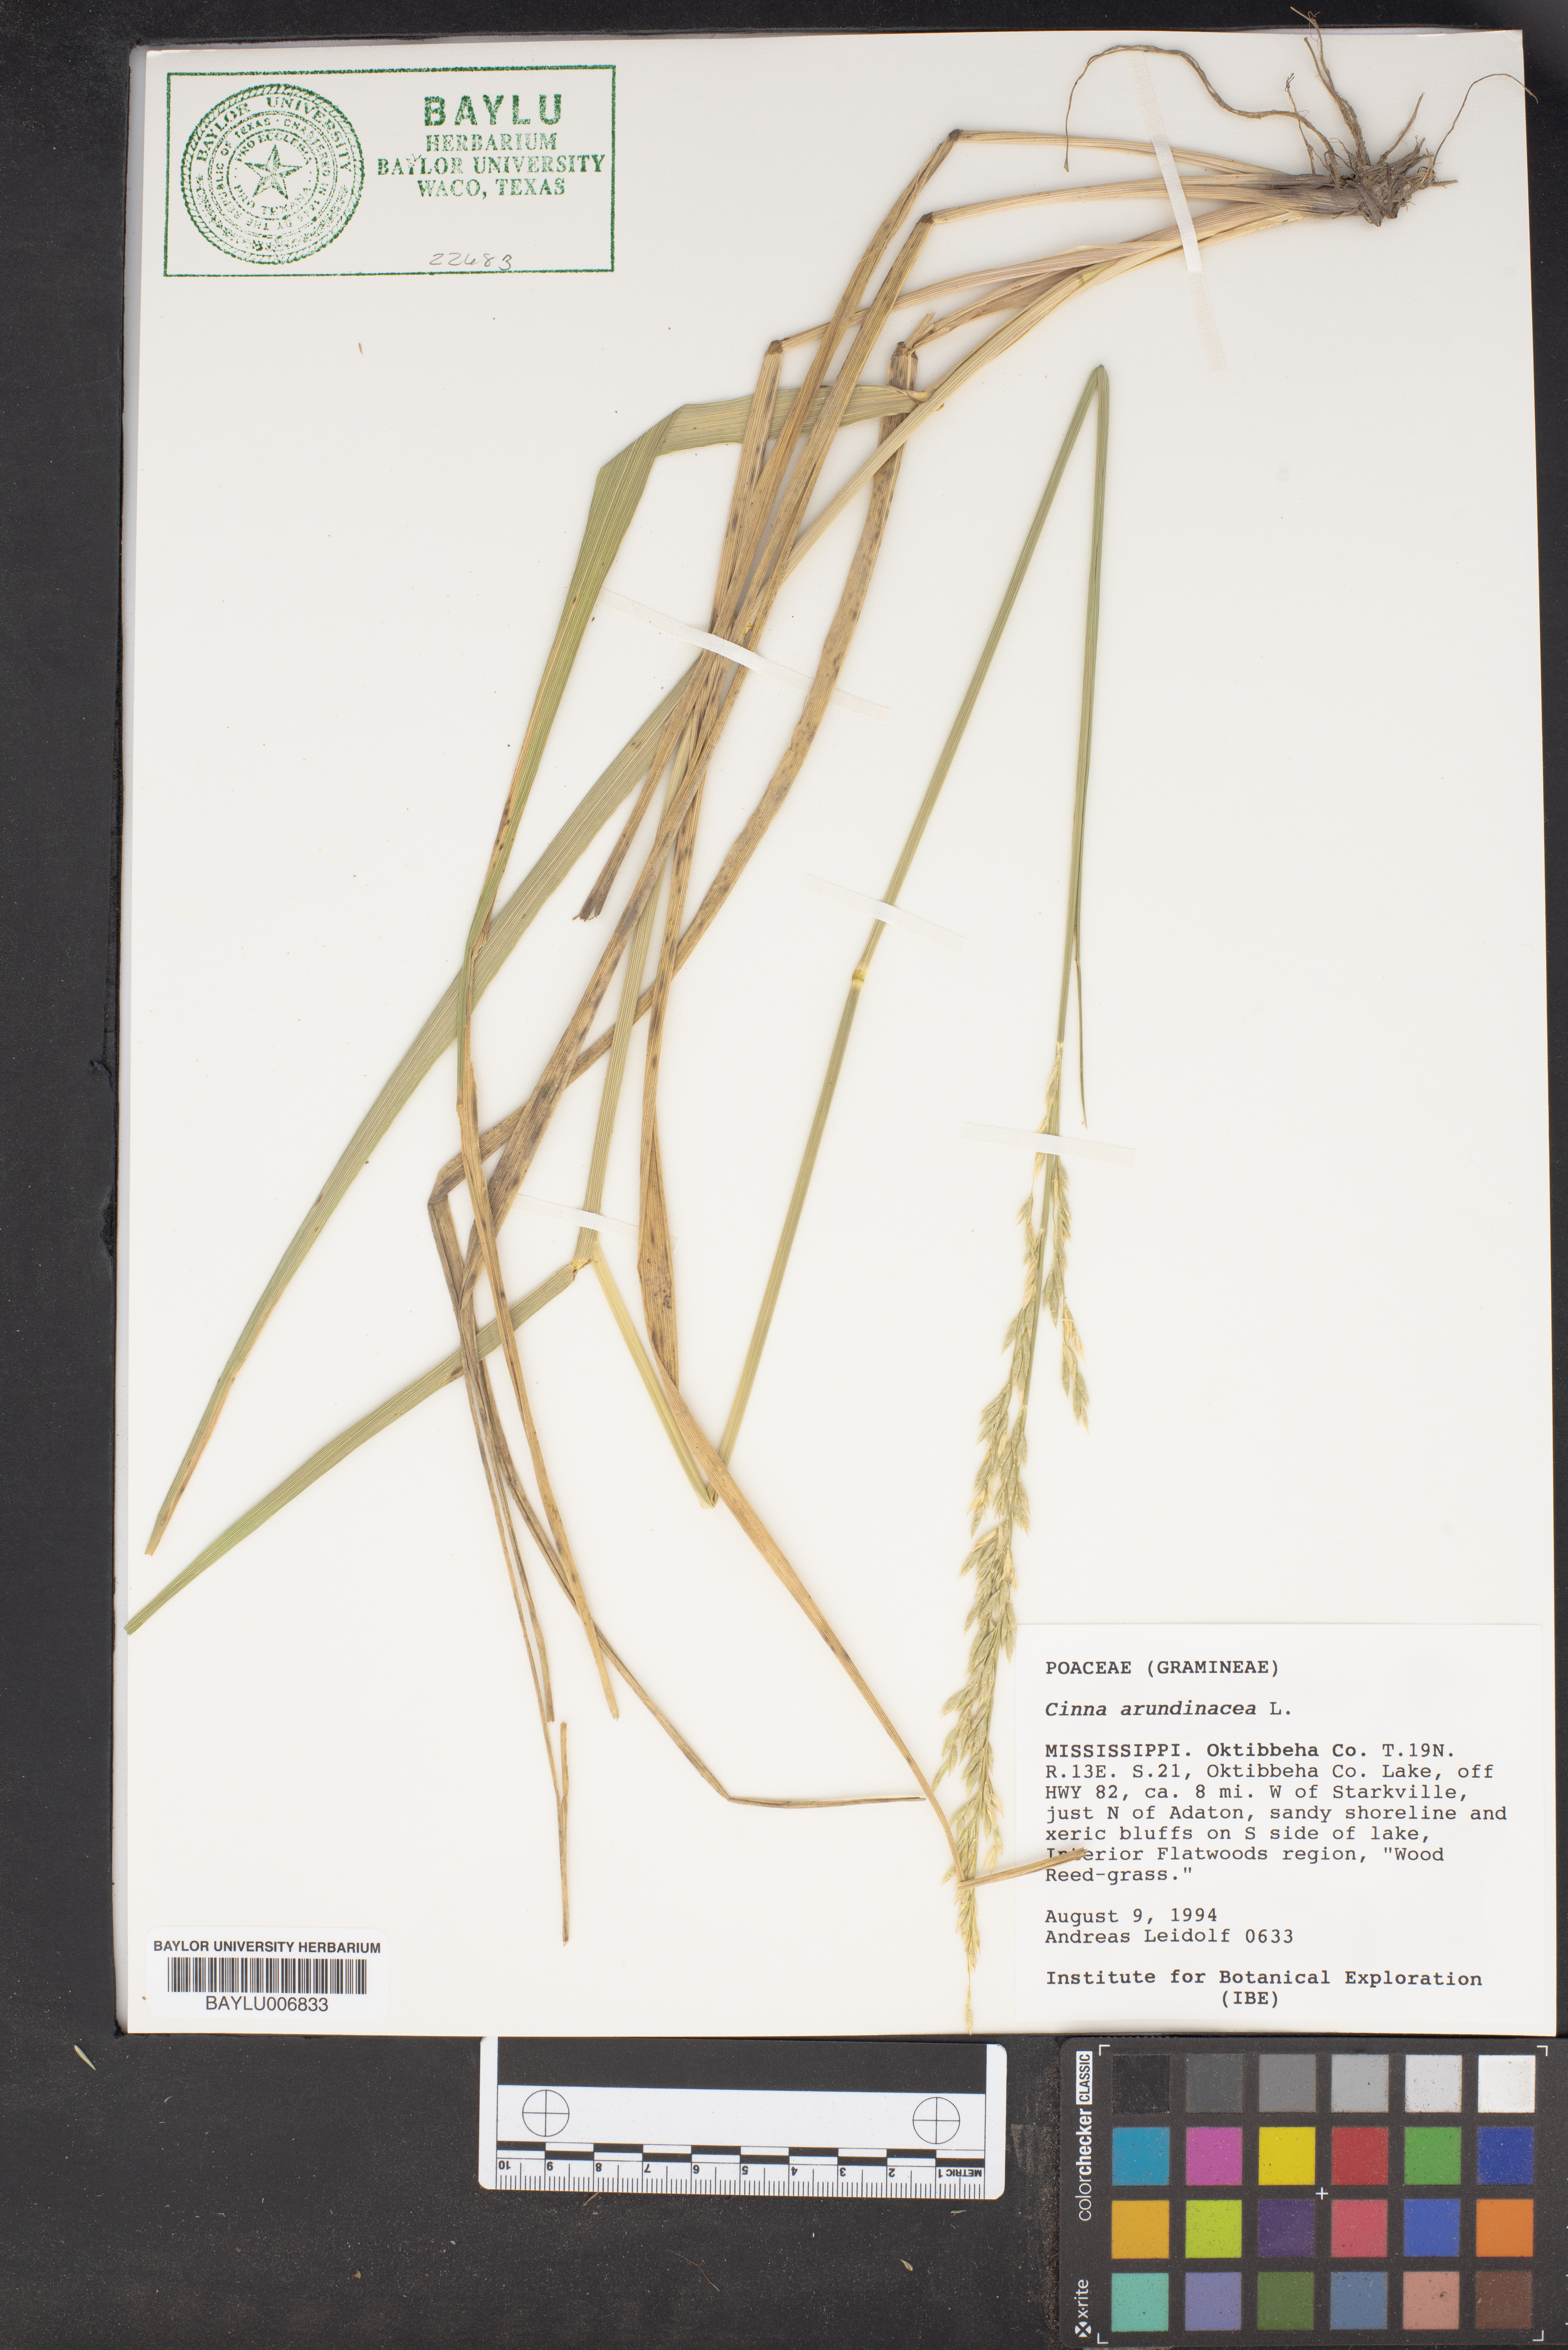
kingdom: Plantae
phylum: Tracheophyta
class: Liliopsida
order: Poales
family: Poaceae
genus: Cinna
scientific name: Cinna arundinacea
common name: Stout woodreed
